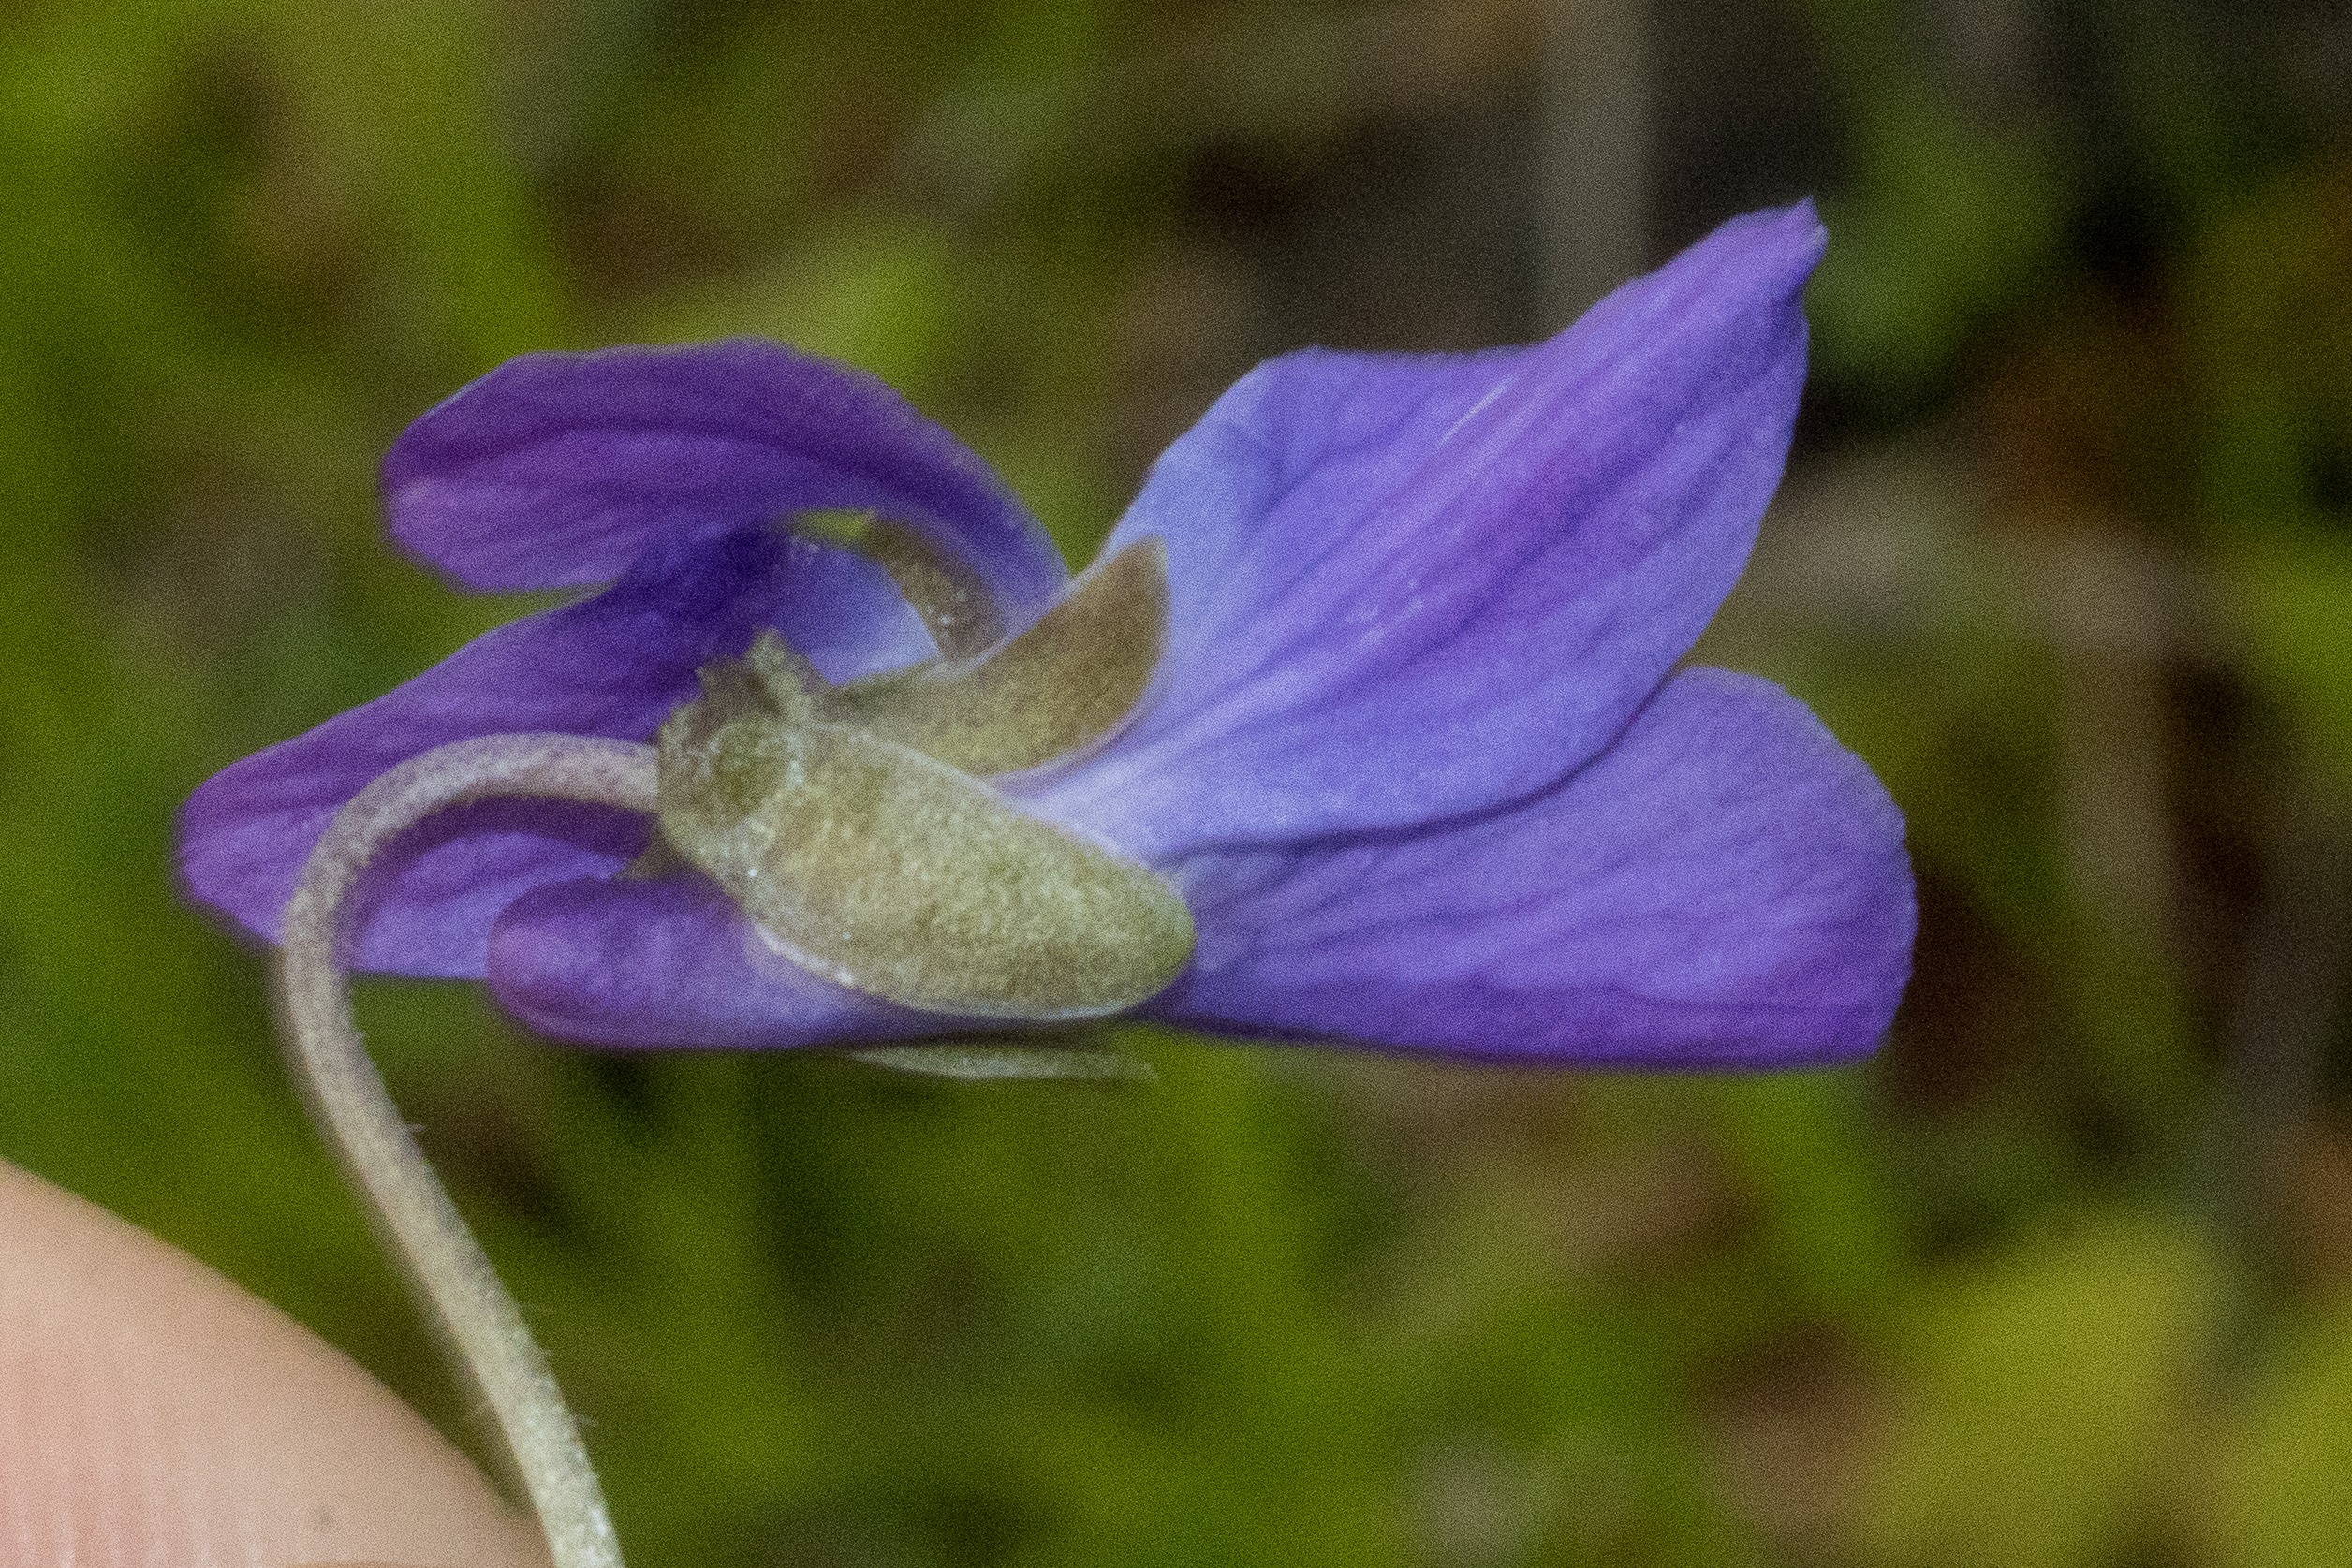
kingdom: Plantae
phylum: Tracheophyta
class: Magnoliopsida
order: Malpighiales
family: Violaceae
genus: Viola
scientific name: Viola odorata
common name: Marts-viol
